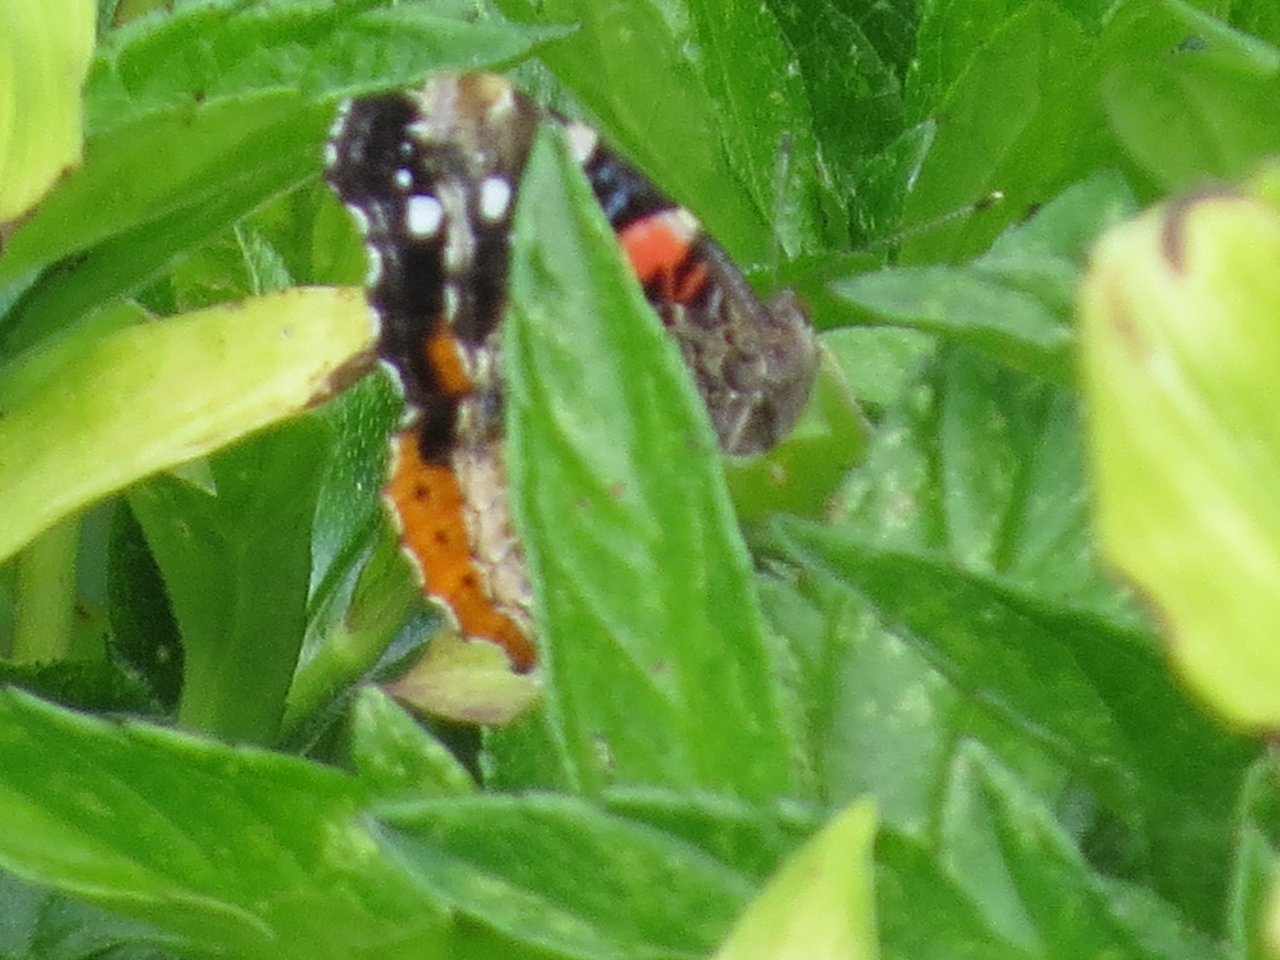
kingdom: Animalia
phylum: Arthropoda
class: Insecta
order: Lepidoptera
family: Nymphalidae
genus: Vanessa
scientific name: Vanessa atalanta
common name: Red Admiral
